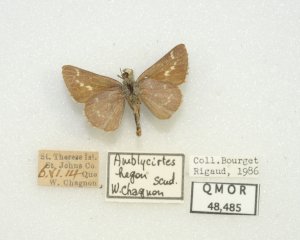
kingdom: Animalia
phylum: Arthropoda
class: Insecta
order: Lepidoptera
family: Hesperiidae
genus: Mastor
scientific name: Mastor hegon
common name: Pepper and Salt Skipper
